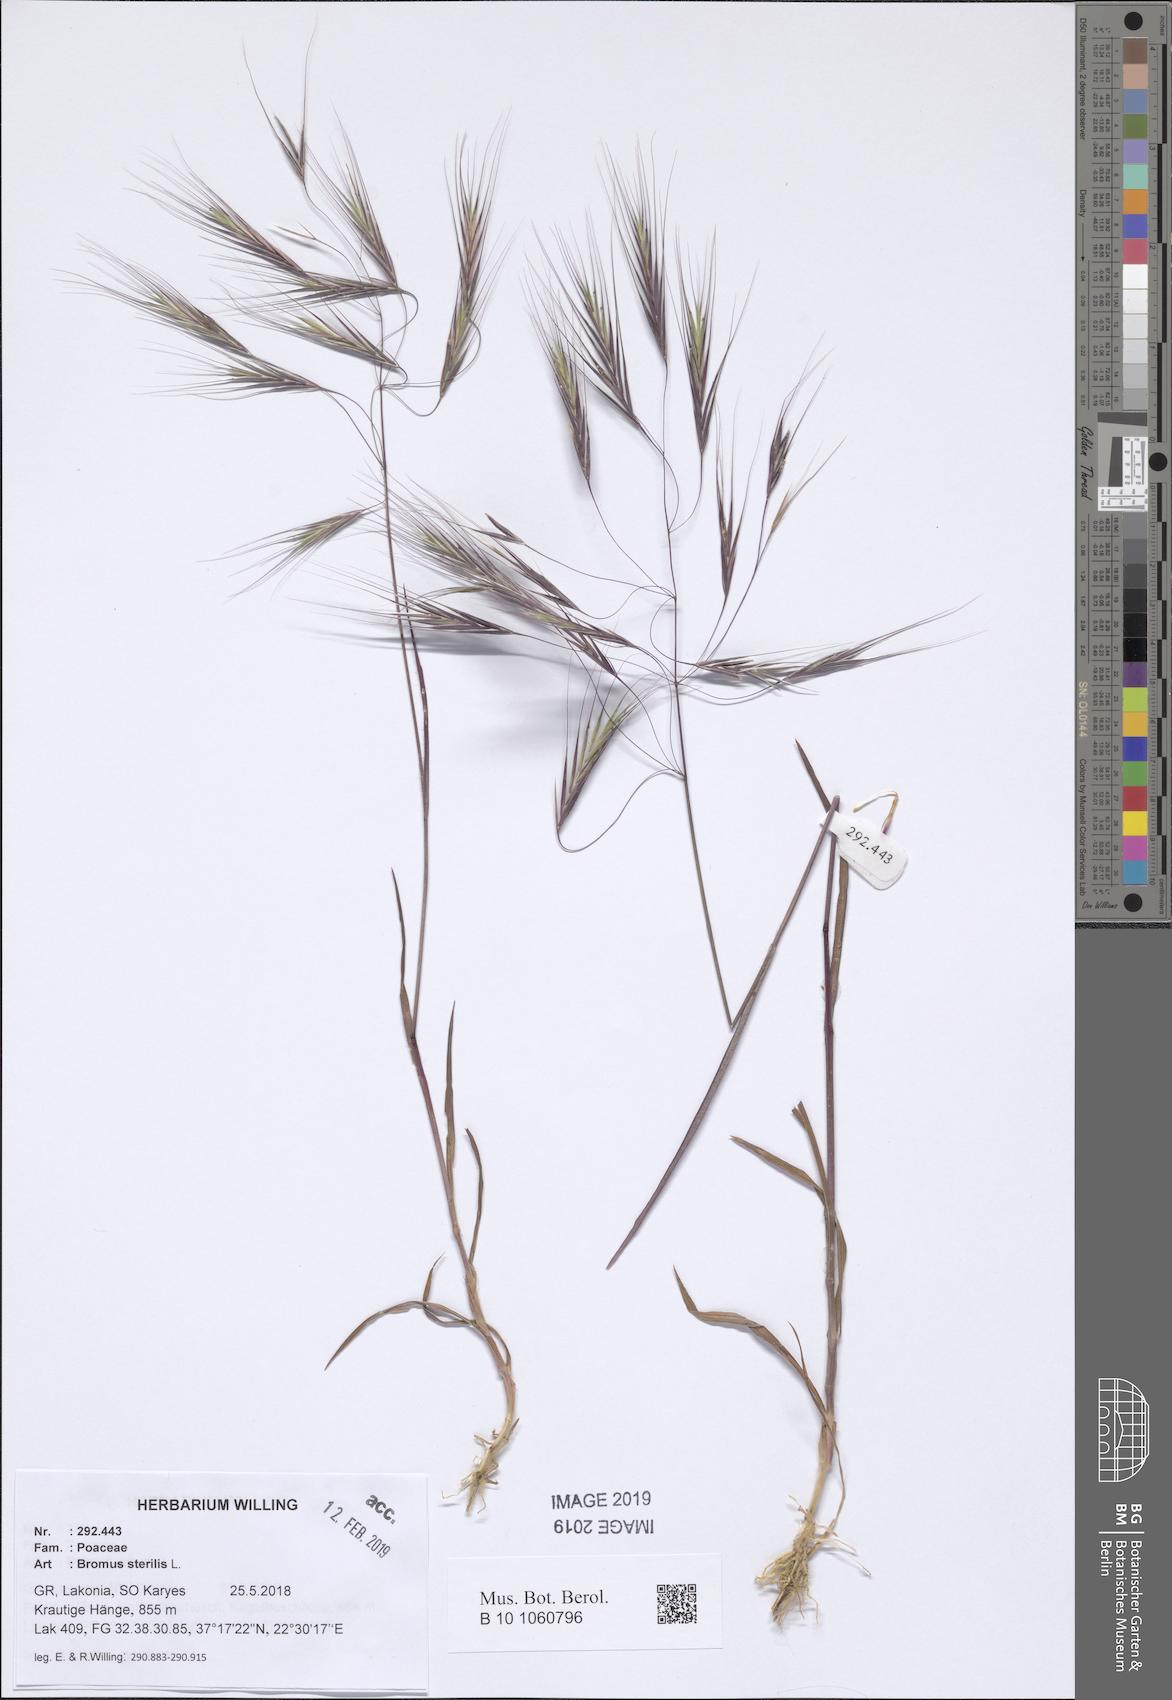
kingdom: Plantae
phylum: Tracheophyta
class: Liliopsida
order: Poales
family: Poaceae
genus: Bromus
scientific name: Bromus sterilis
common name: Poverty brome
